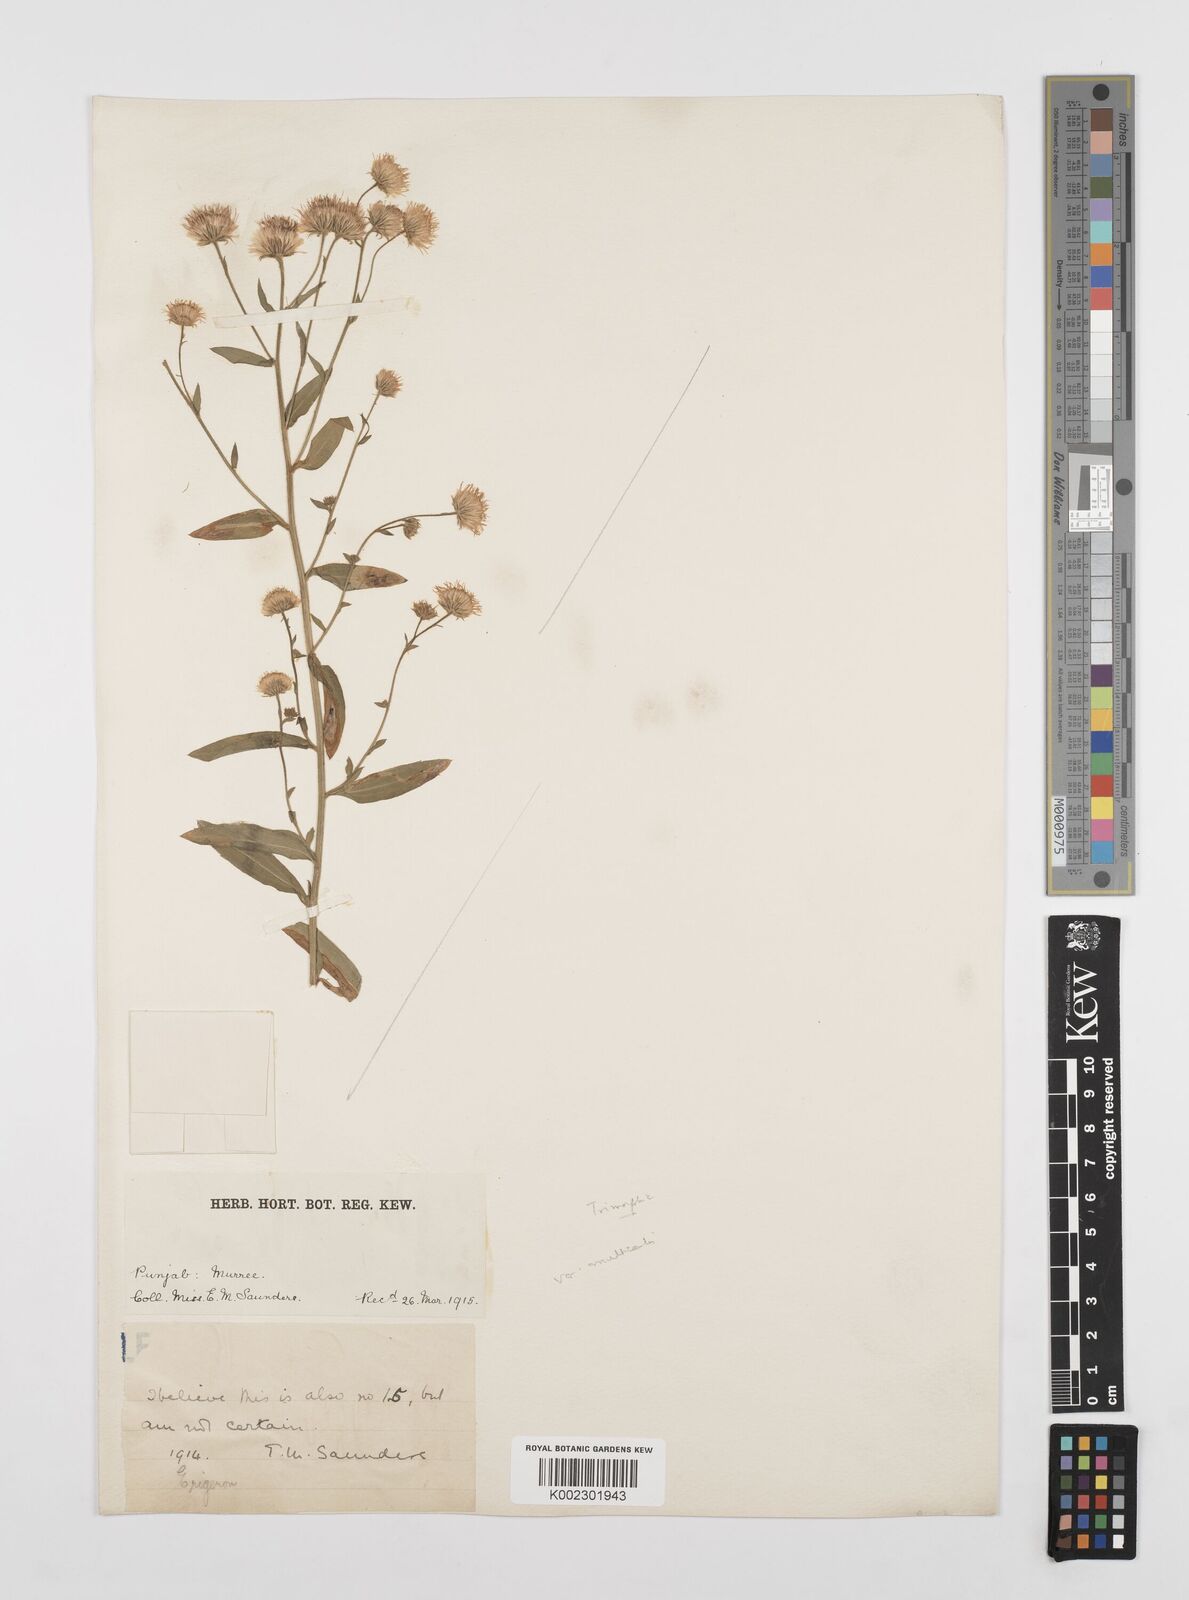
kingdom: Plantae
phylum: Tracheophyta
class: Magnoliopsida
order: Asterales
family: Asteraceae
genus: Erigeron
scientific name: Erigeron alpinus
